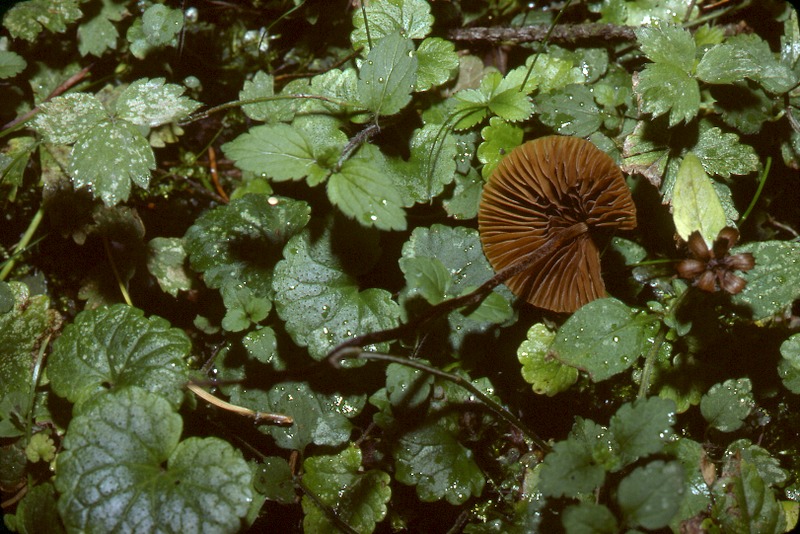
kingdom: Fungi
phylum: Basidiomycota
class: Agaricomycetes
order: Agaricales
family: Bolbitiaceae
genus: Conocybe
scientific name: Conocybe tenera
